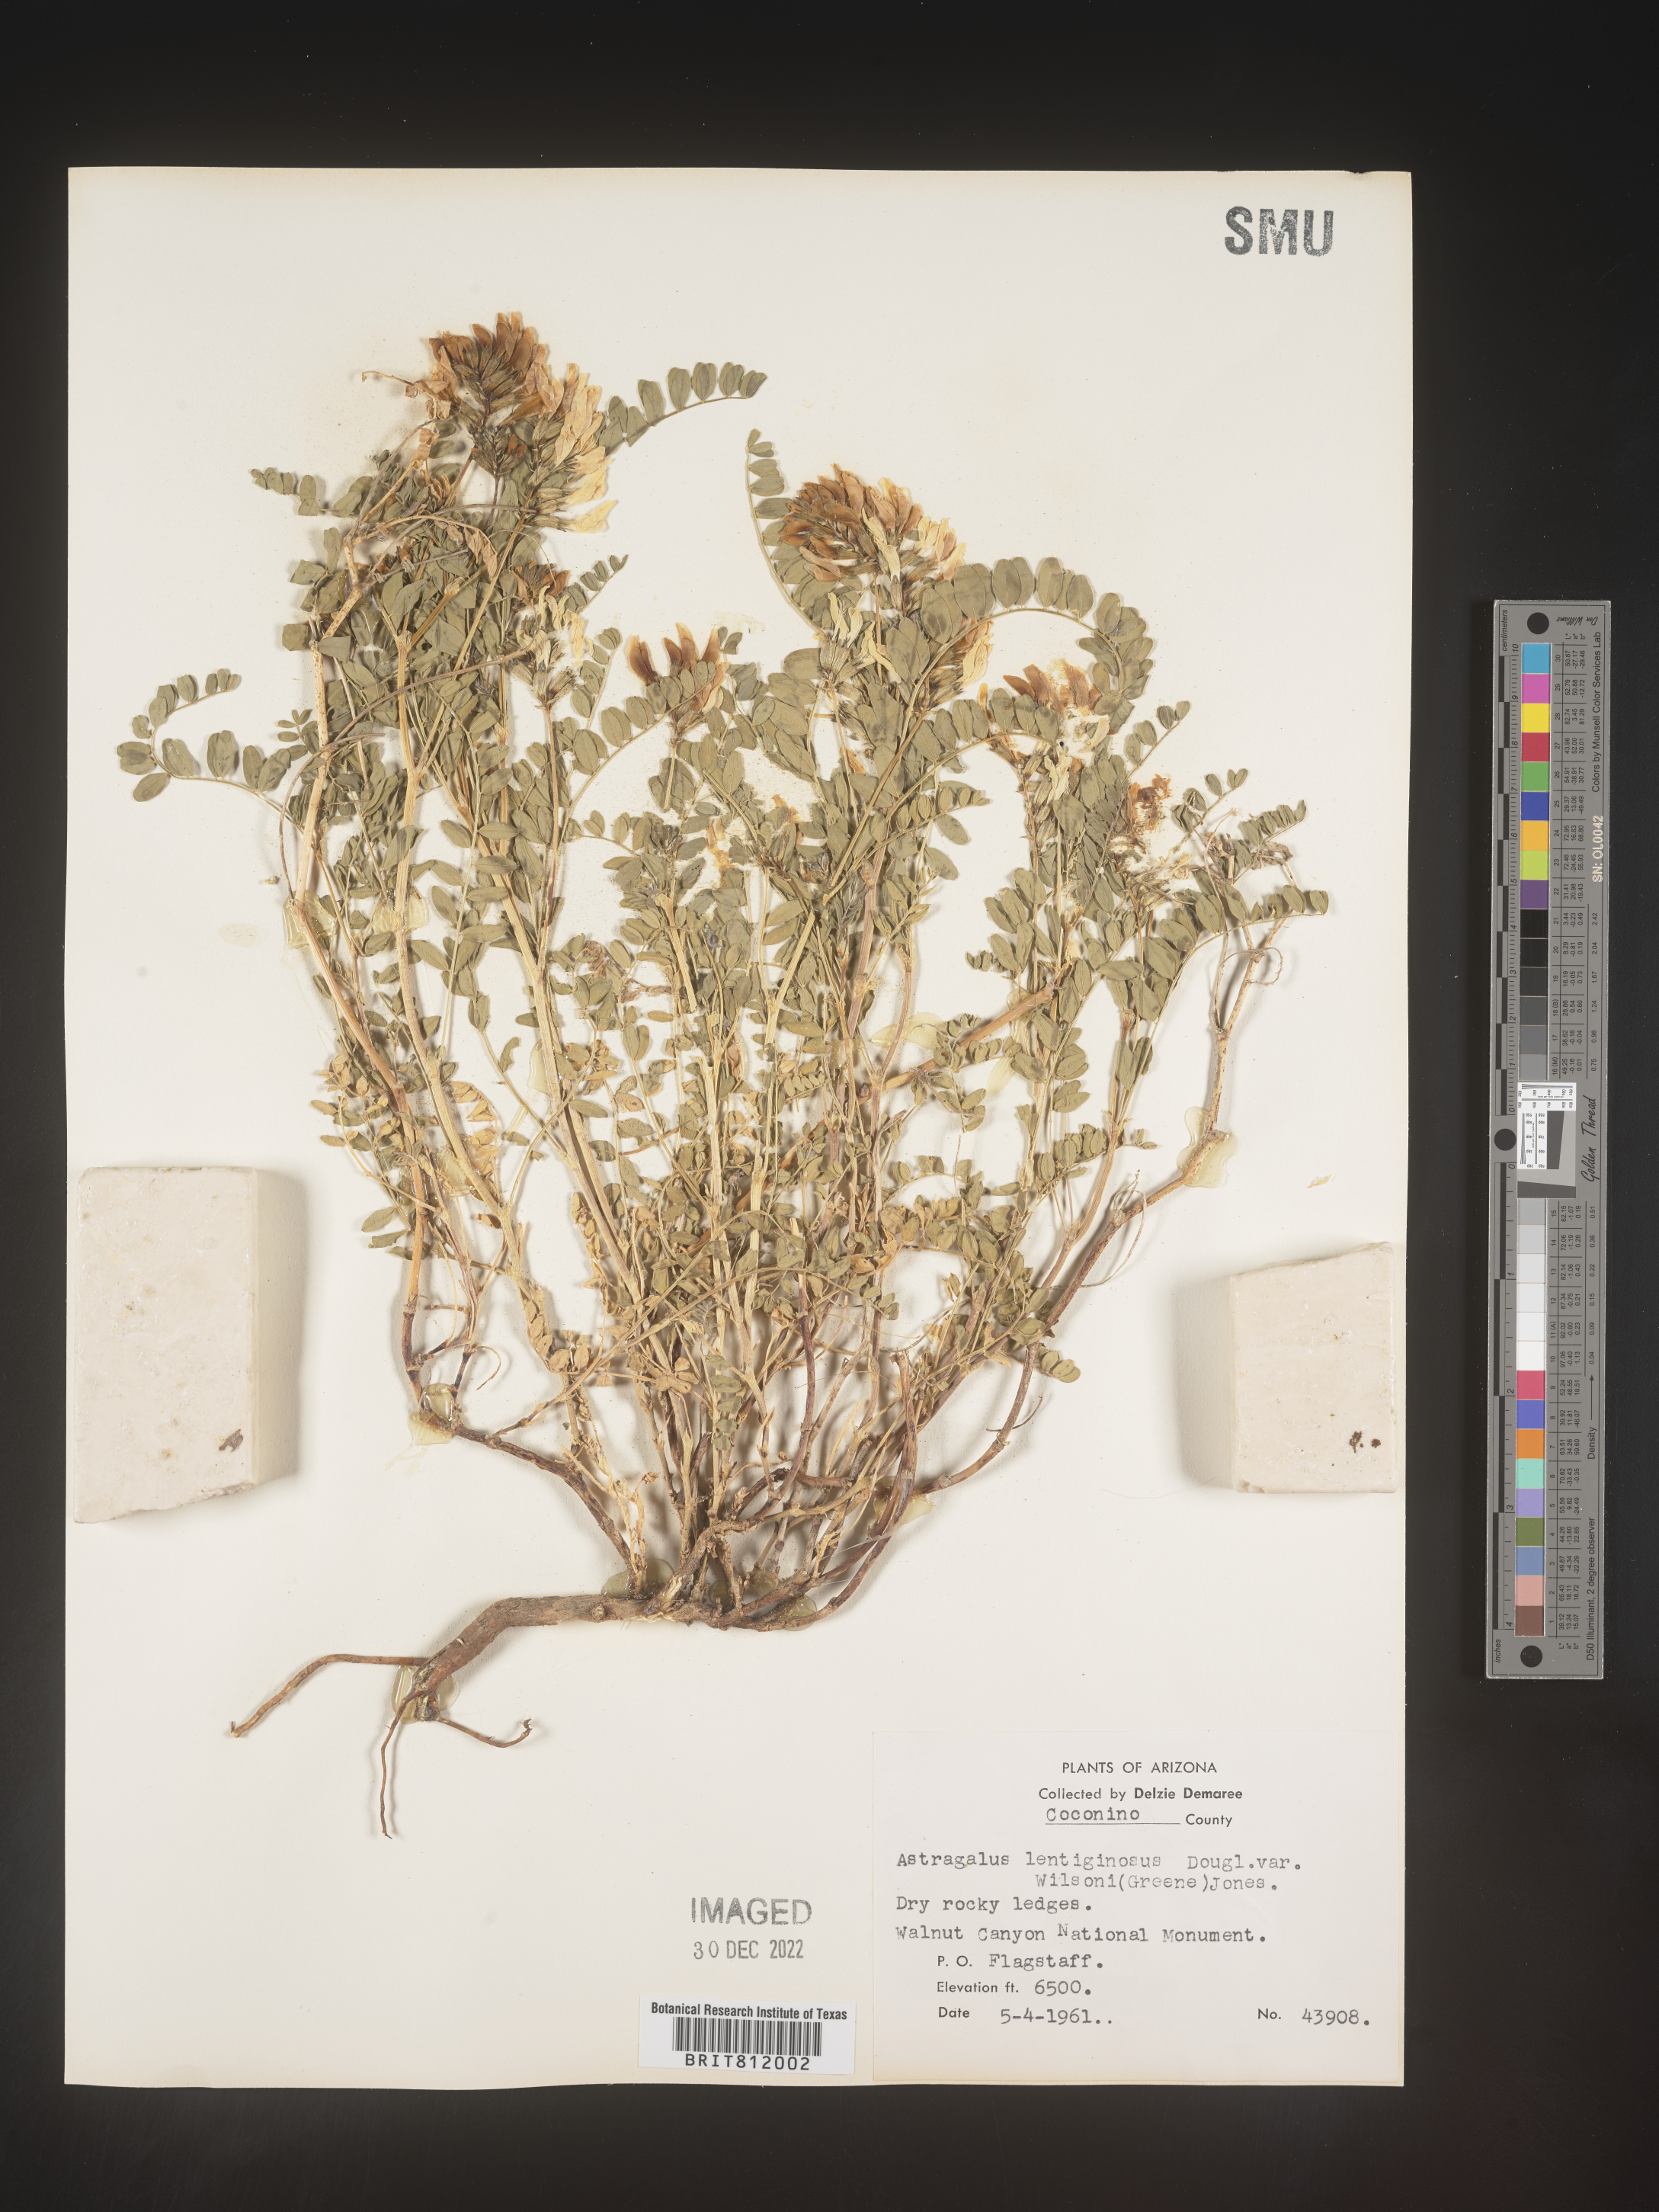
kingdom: Plantae
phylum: Tracheophyta
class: Magnoliopsida
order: Fabales
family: Fabaceae
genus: Astragalus
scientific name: Astragalus lentiginosus
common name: Freckled milkvetch
